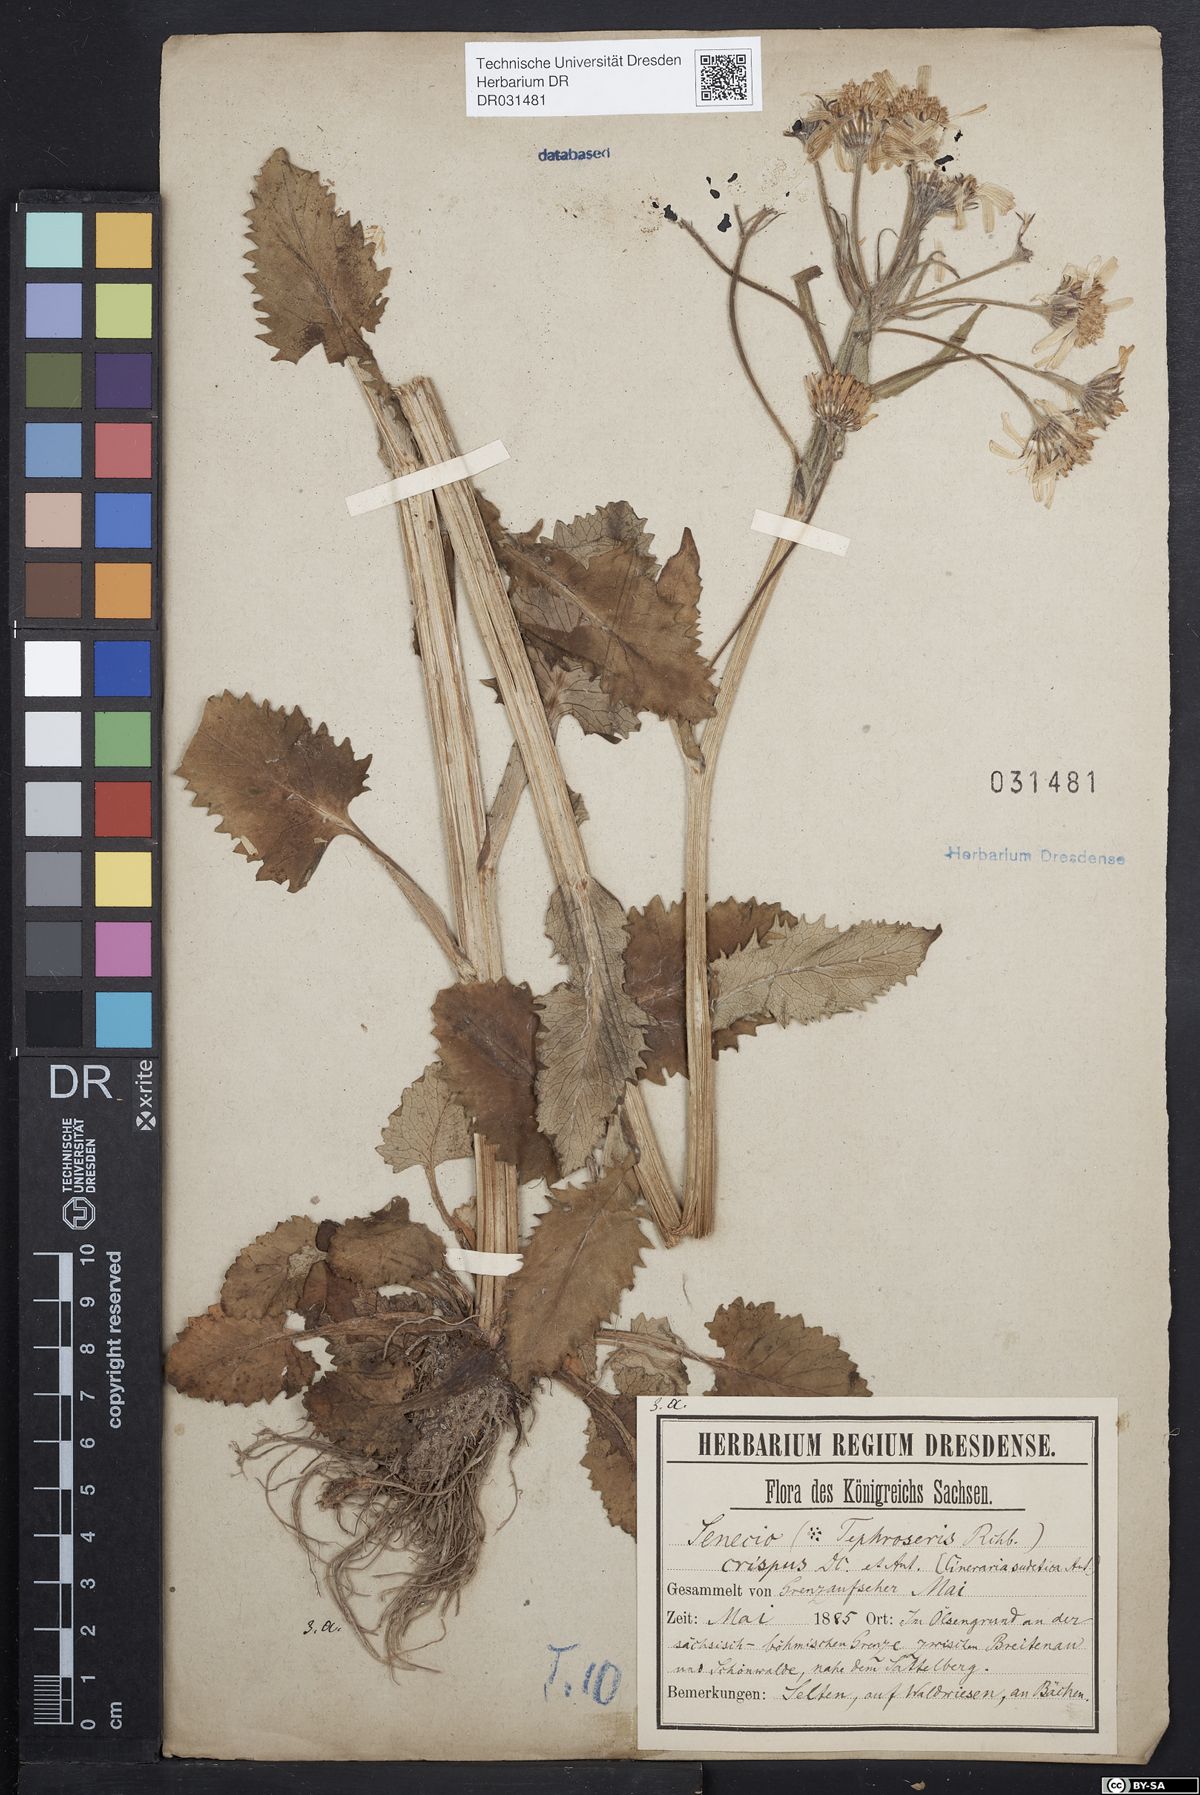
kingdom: Plantae
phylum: Tracheophyta
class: Magnoliopsida
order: Asterales
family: Asteraceae
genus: Tephroseris
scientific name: Tephroseris crispa
